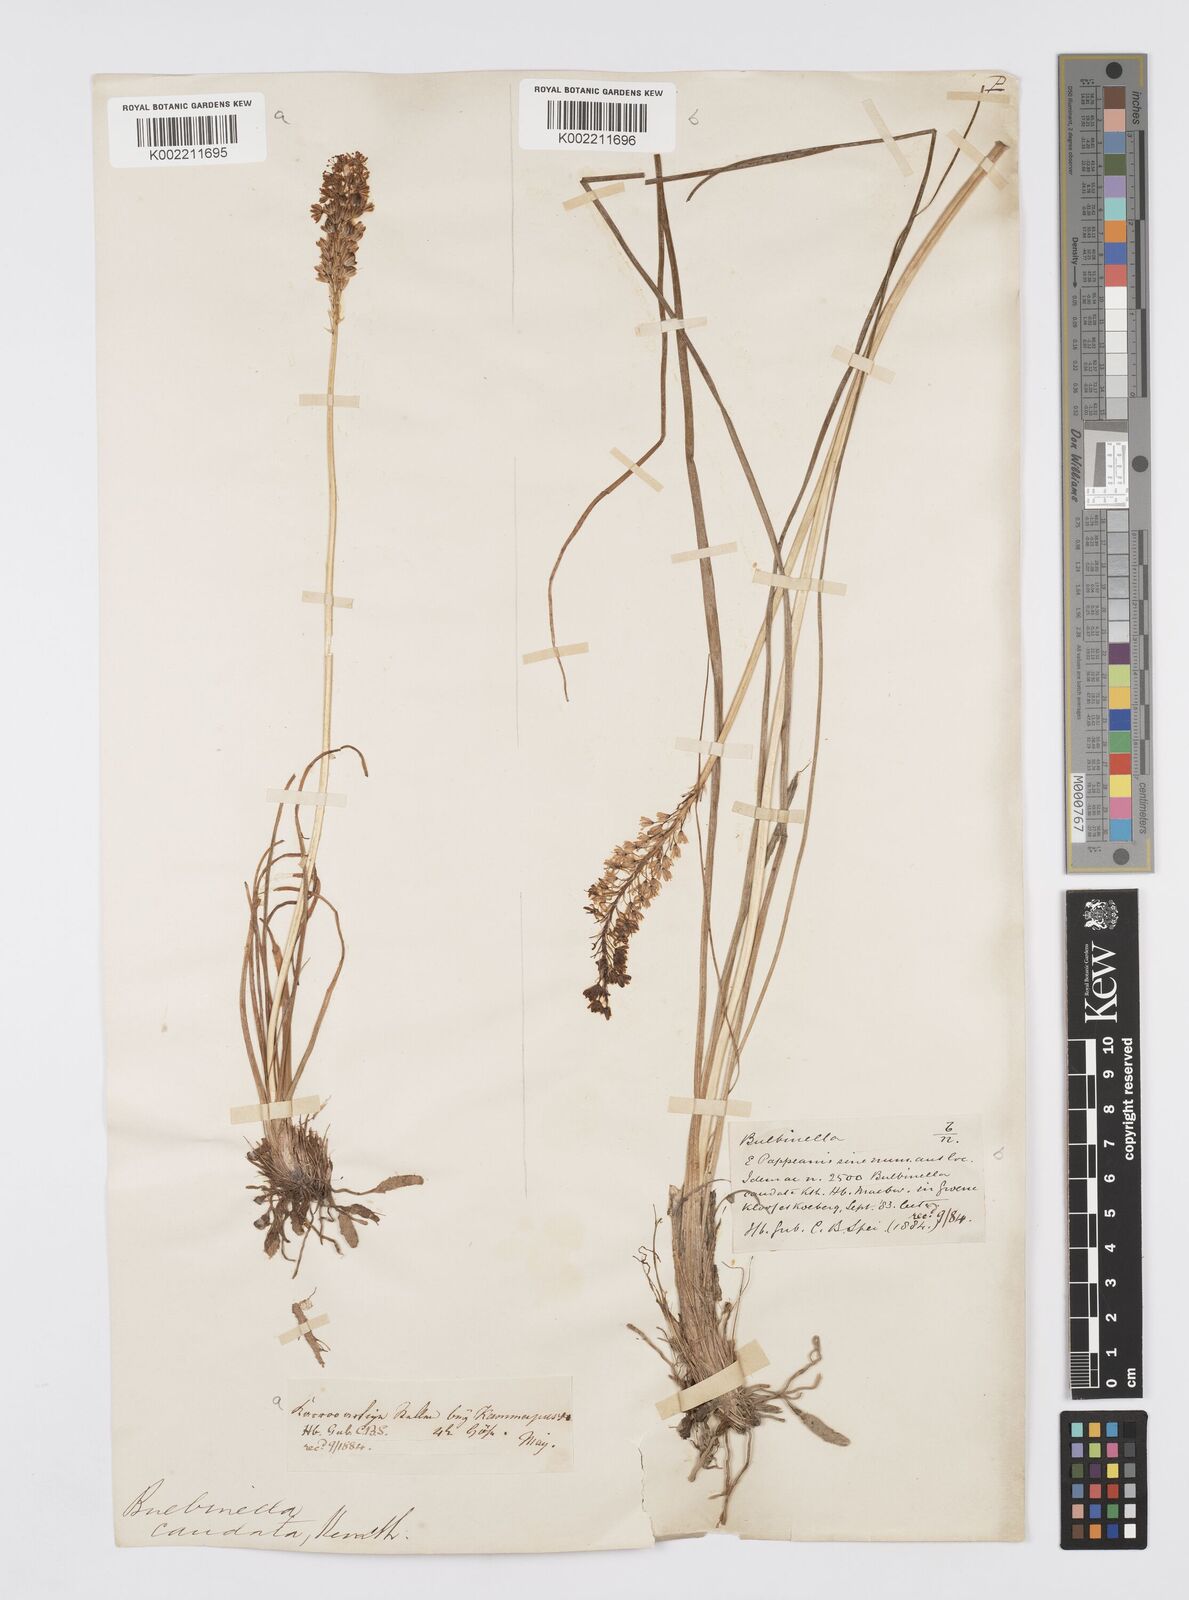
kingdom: Plantae
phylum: Tracheophyta
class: Liliopsida
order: Asparagales
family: Asphodelaceae
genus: Bulbinella
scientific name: Bulbinella cauda-felis
